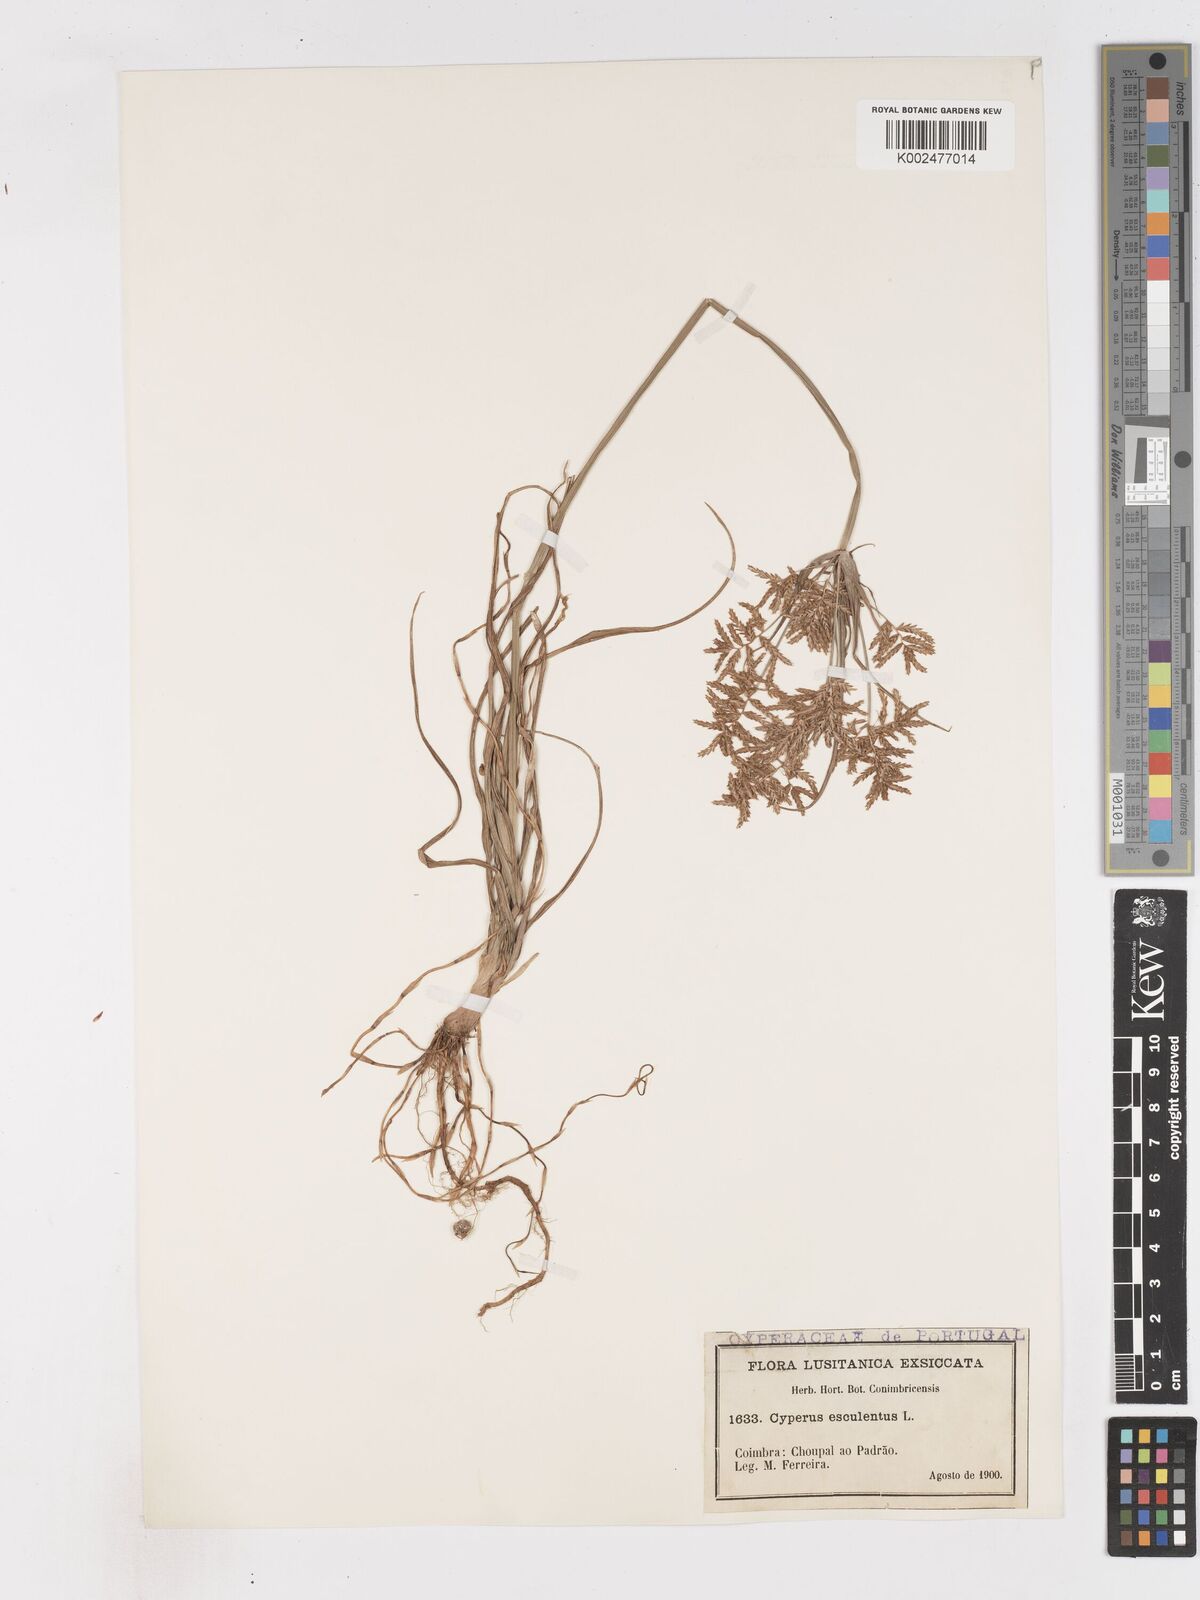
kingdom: Plantae
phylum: Tracheophyta
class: Liliopsida
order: Poales
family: Cyperaceae
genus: Cyperus
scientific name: Cyperus esculentus
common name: Yellow nutsedge
